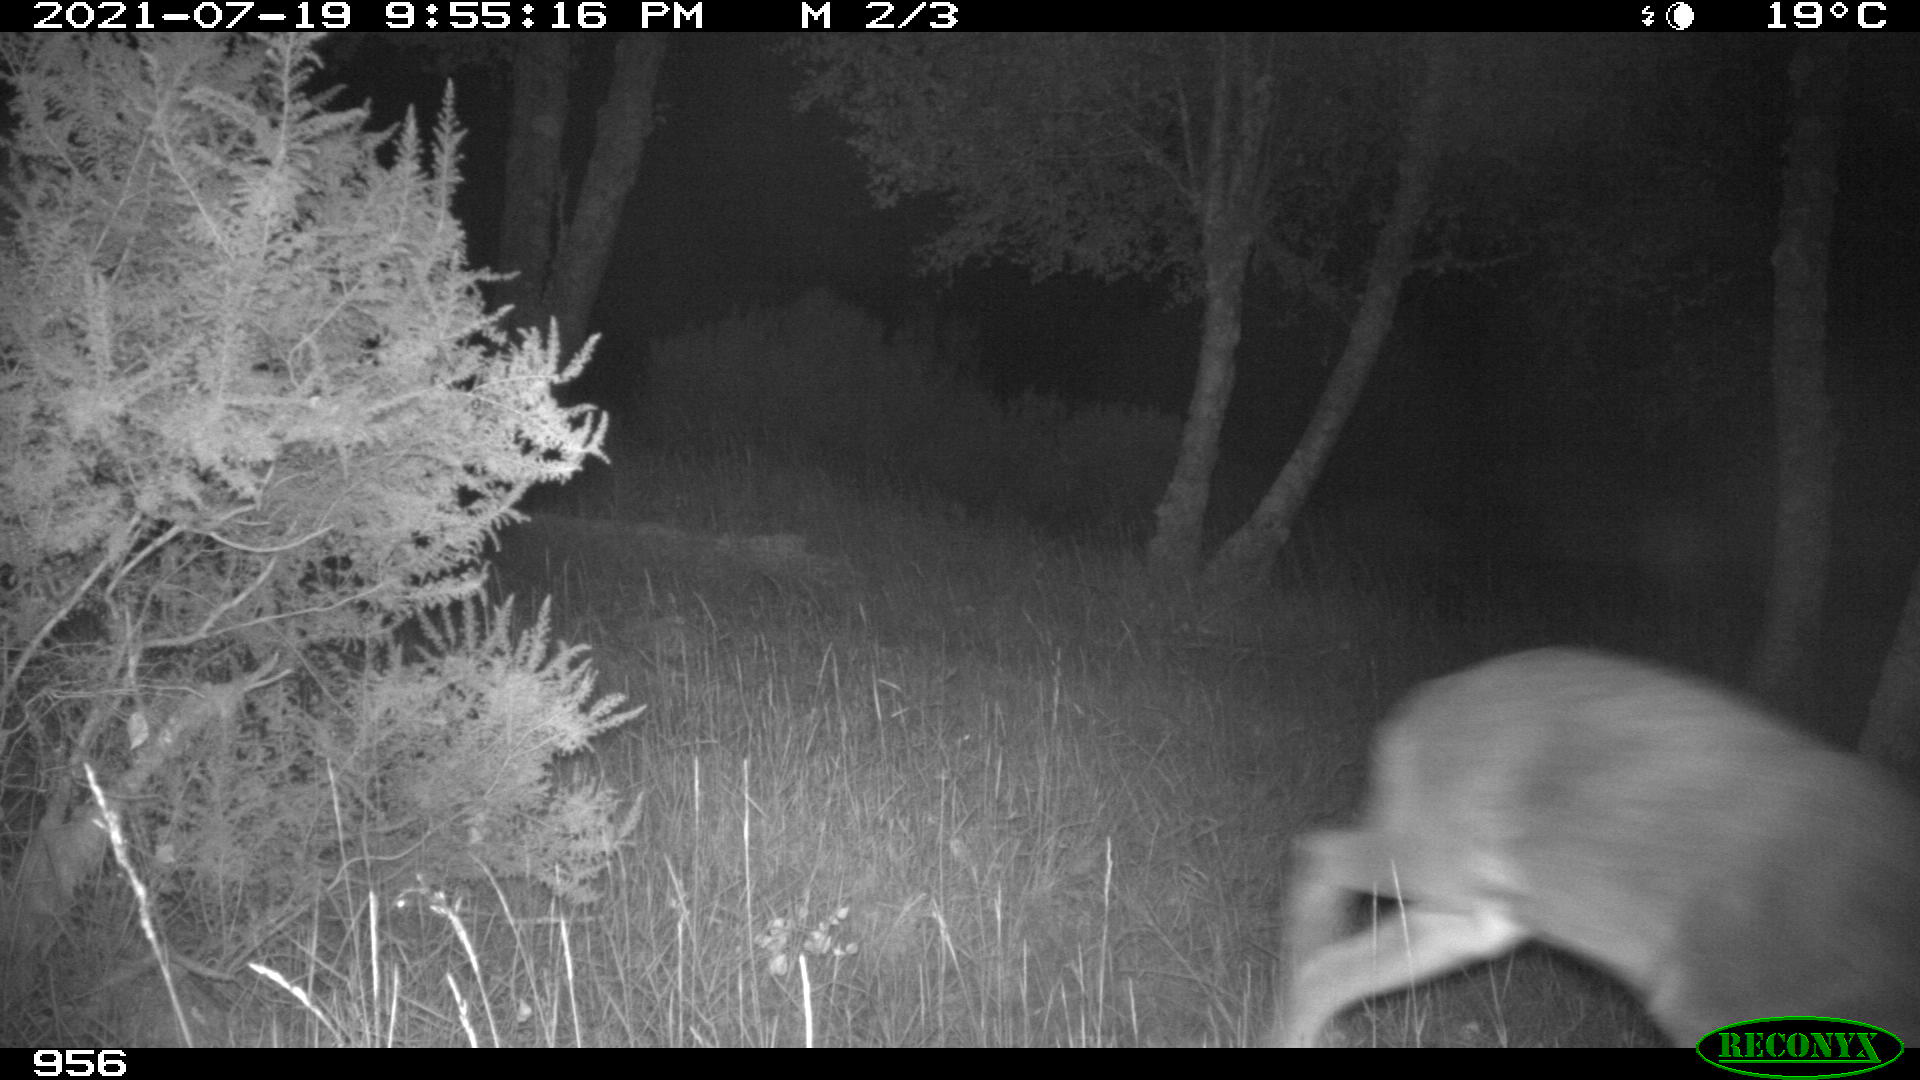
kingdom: Animalia
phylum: Chordata
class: Mammalia
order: Artiodactyla
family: Cervidae
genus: Capreolus
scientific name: Capreolus capreolus
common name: Western roe deer
